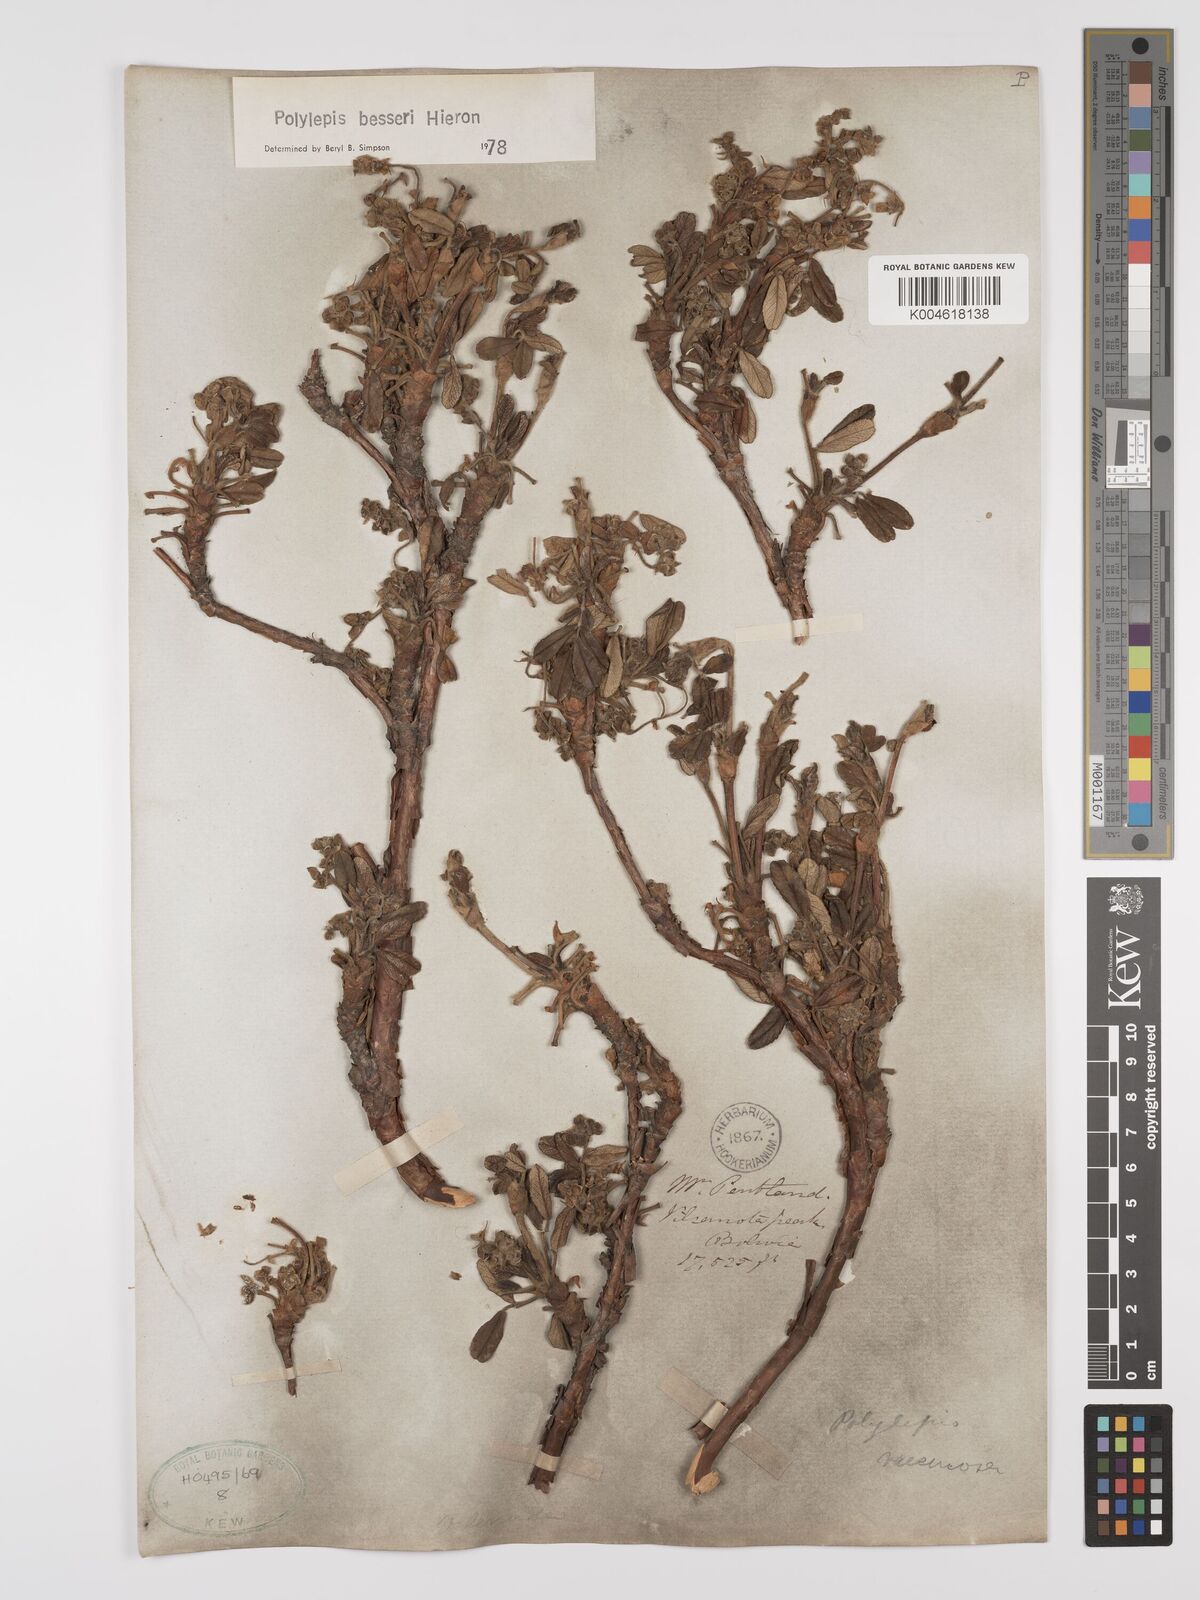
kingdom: Plantae
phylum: Tracheophyta
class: Magnoliopsida
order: Rosales
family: Rosaceae
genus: Polylepis
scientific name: Polylepis
